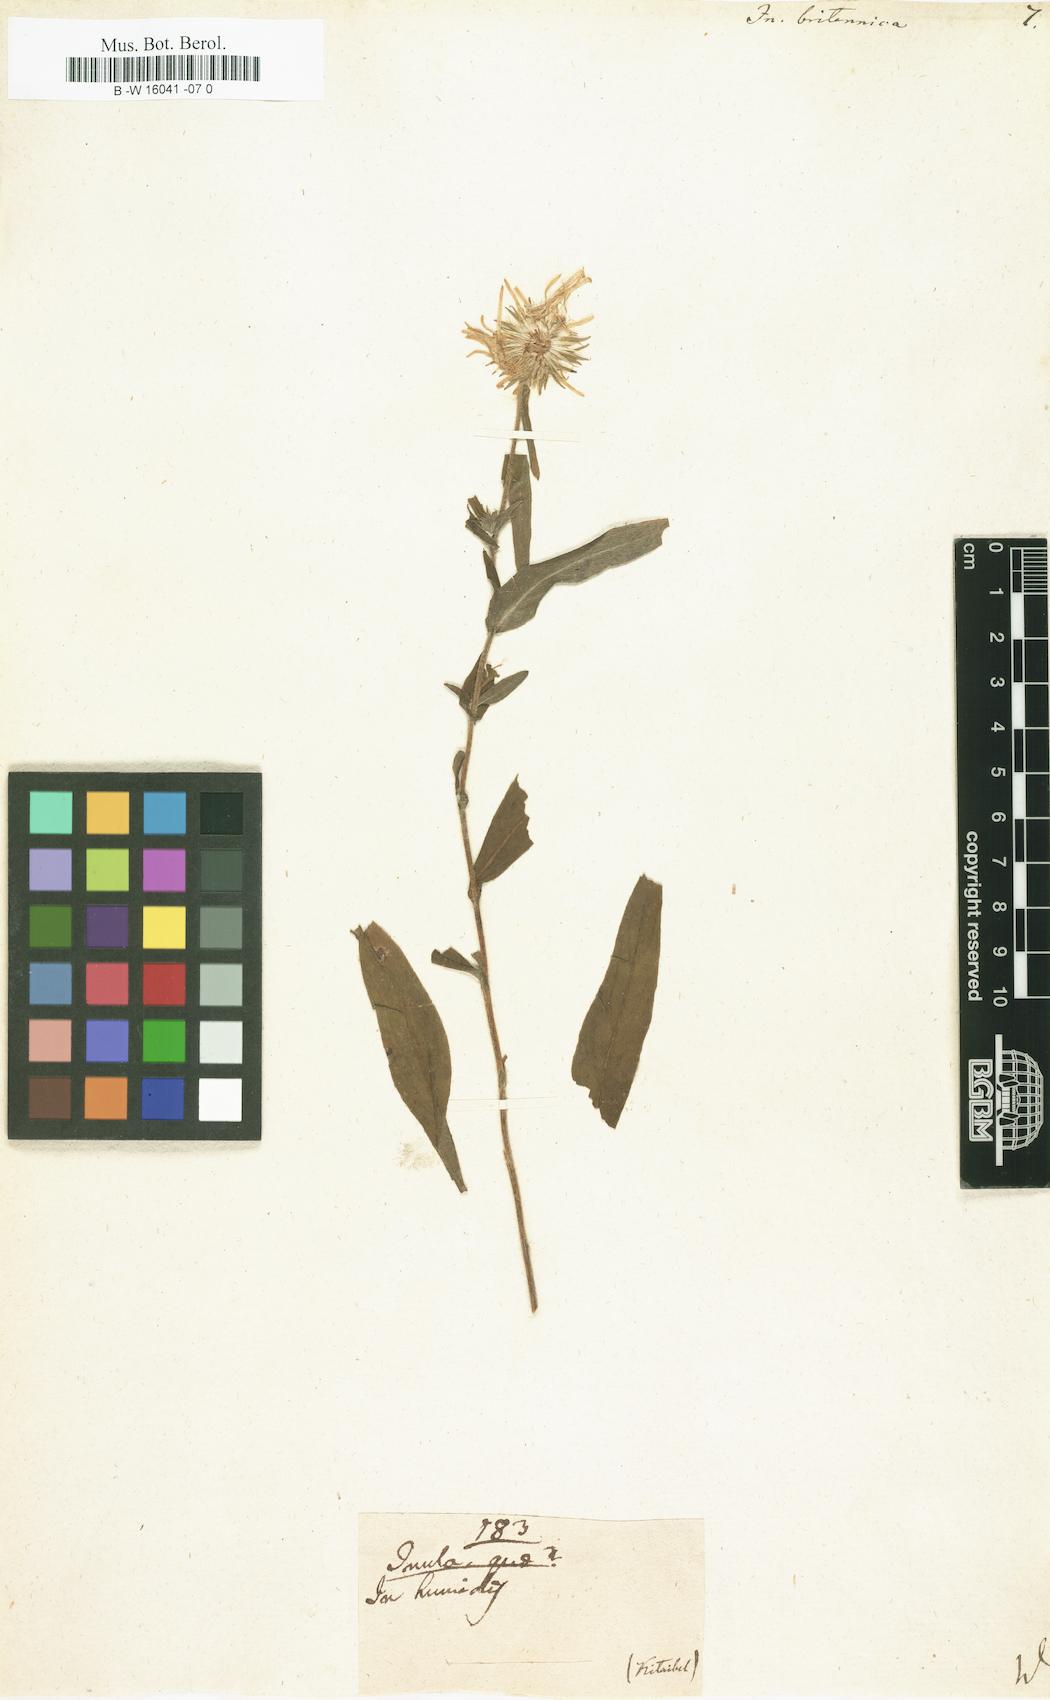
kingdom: Plantae
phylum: Tracheophyta
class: Magnoliopsida
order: Asterales
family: Asteraceae
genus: Inula
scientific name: Inula britannica
